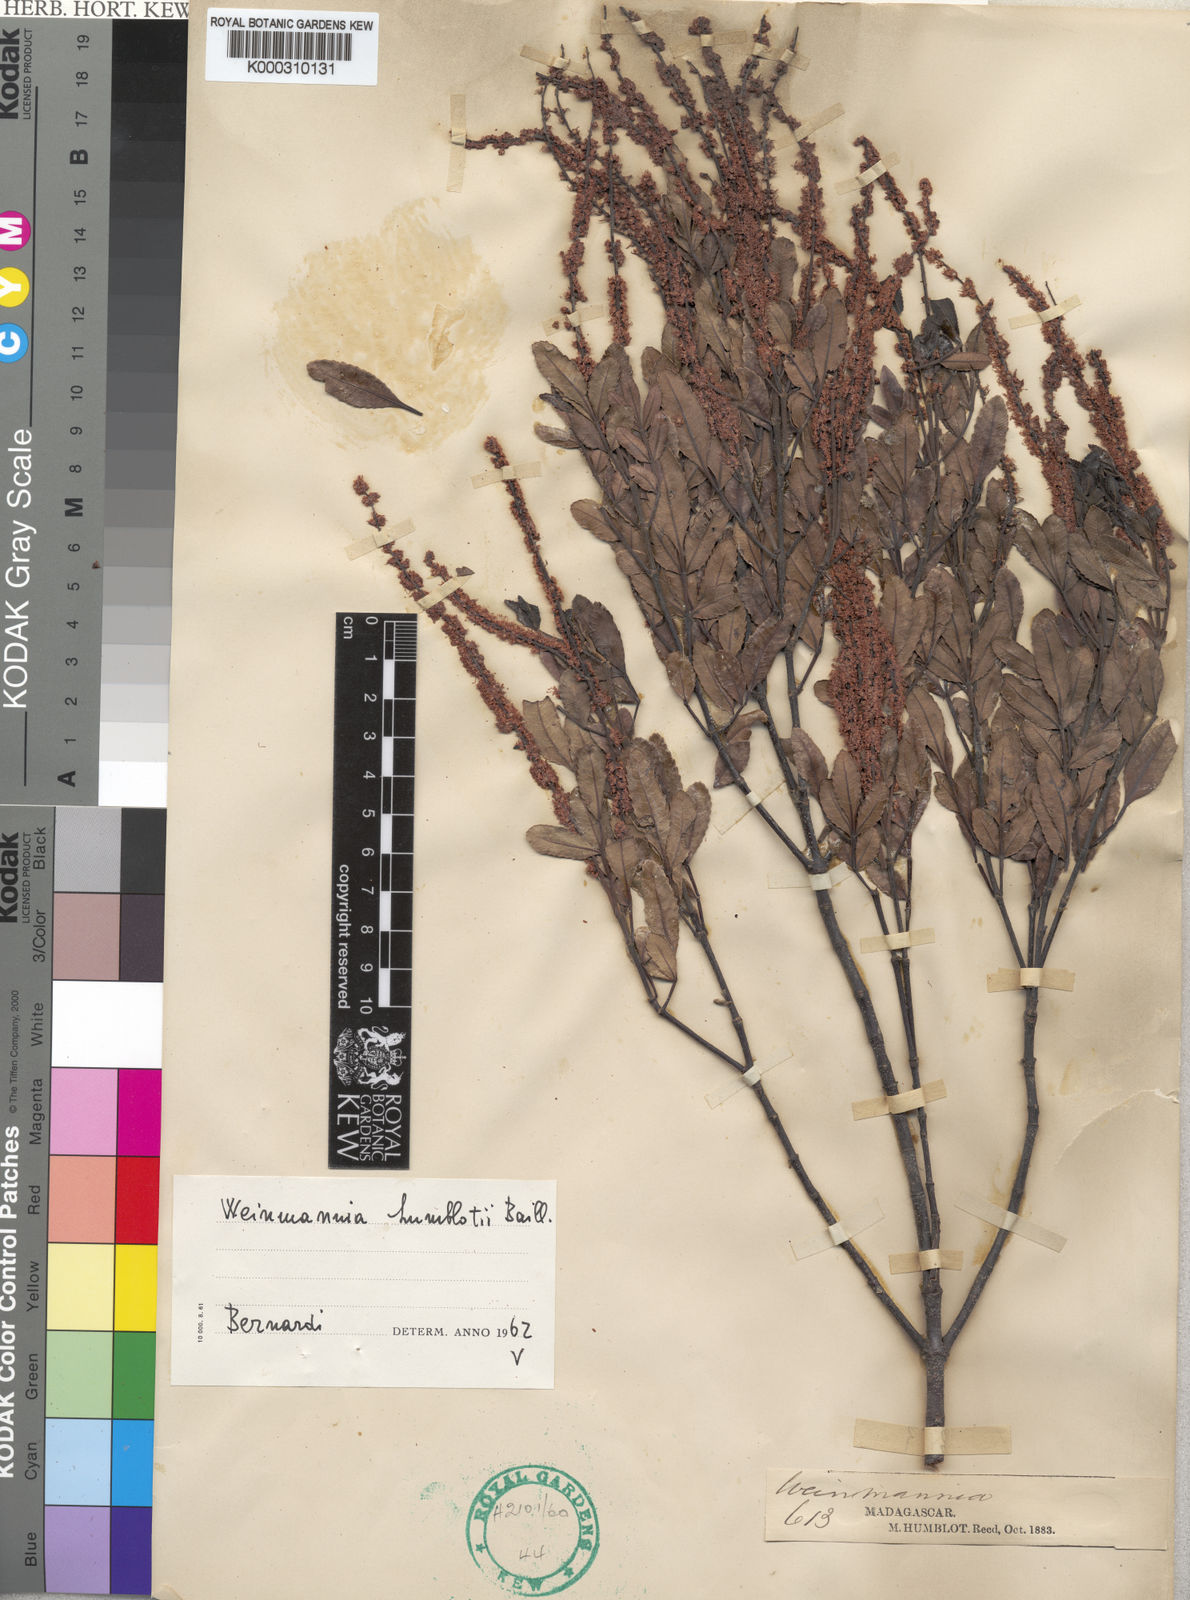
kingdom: Plantae
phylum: Tracheophyta
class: Magnoliopsida
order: Oxalidales
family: Cunoniaceae
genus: Pterophylla
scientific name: Pterophylla humblotii
